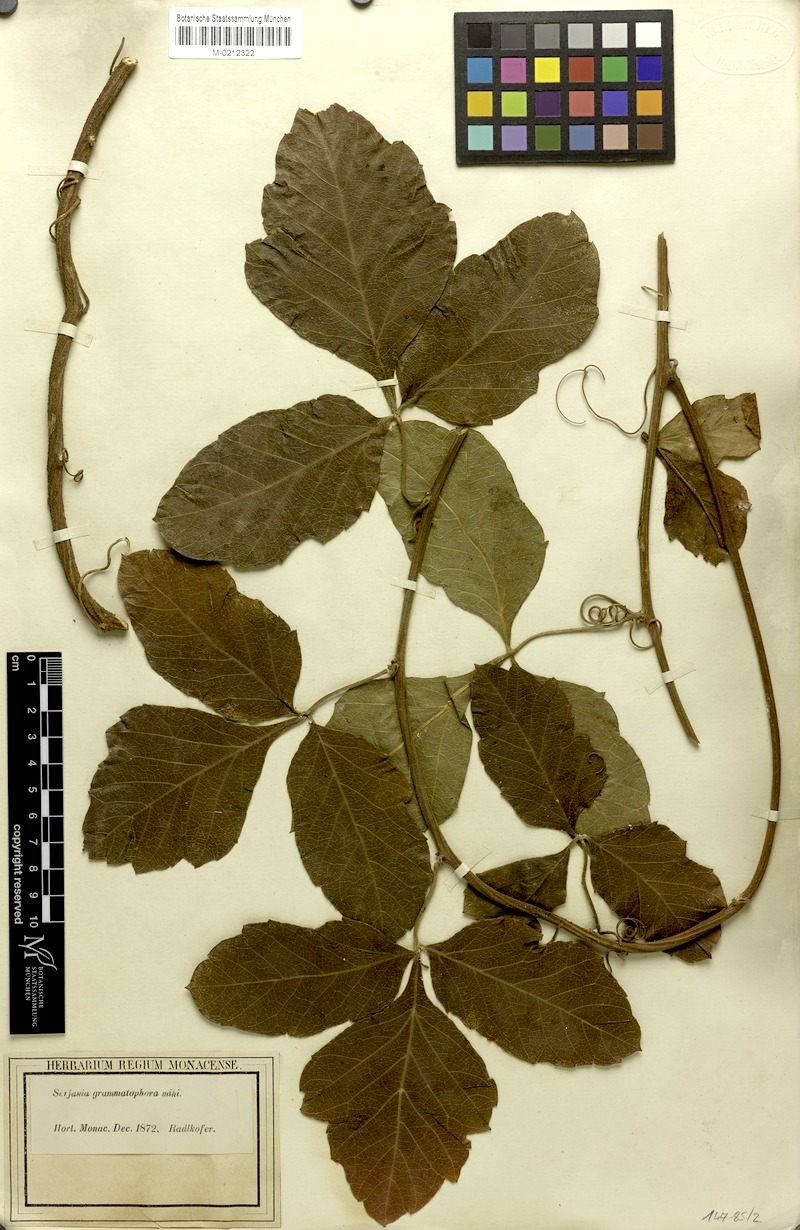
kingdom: Plantae
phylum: Tracheophyta
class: Magnoliopsida
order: Sapindales
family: Sapindaceae
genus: Serjania
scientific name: Serjania grammatophora
